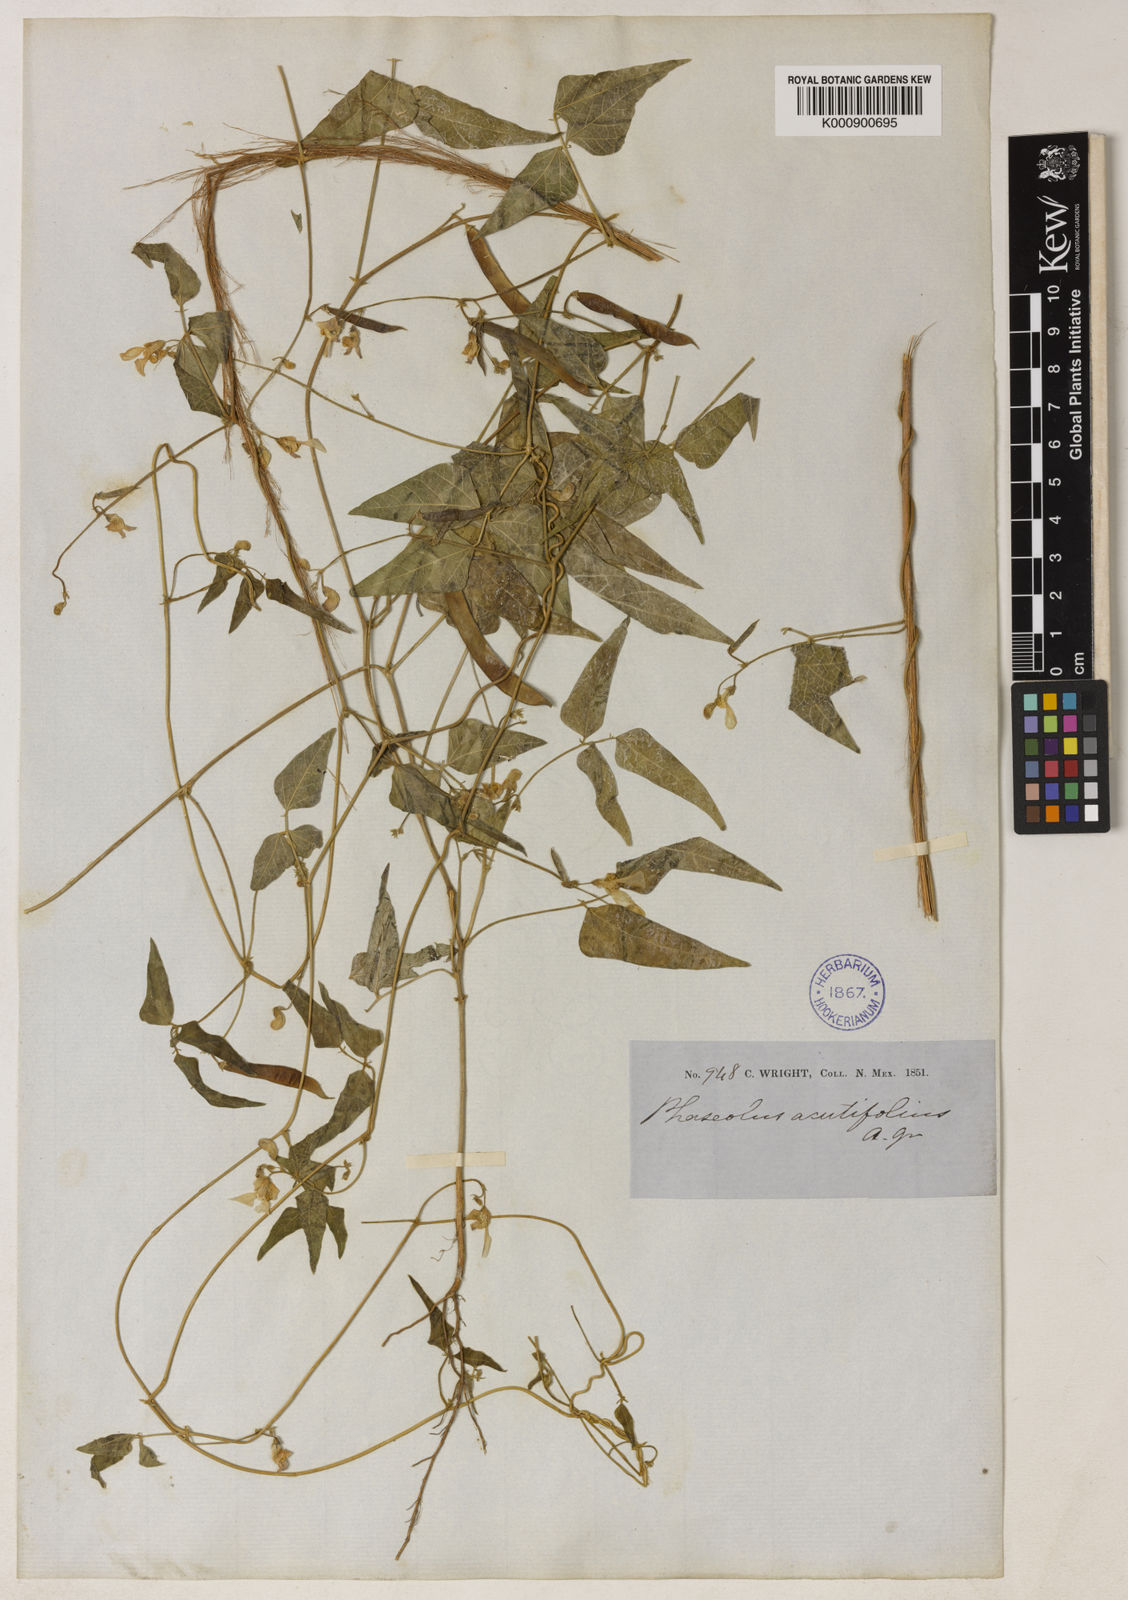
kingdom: Plantae
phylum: Tracheophyta
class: Magnoliopsida
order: Fabales
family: Fabaceae
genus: Phaseolus
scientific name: Phaseolus acutifolius
